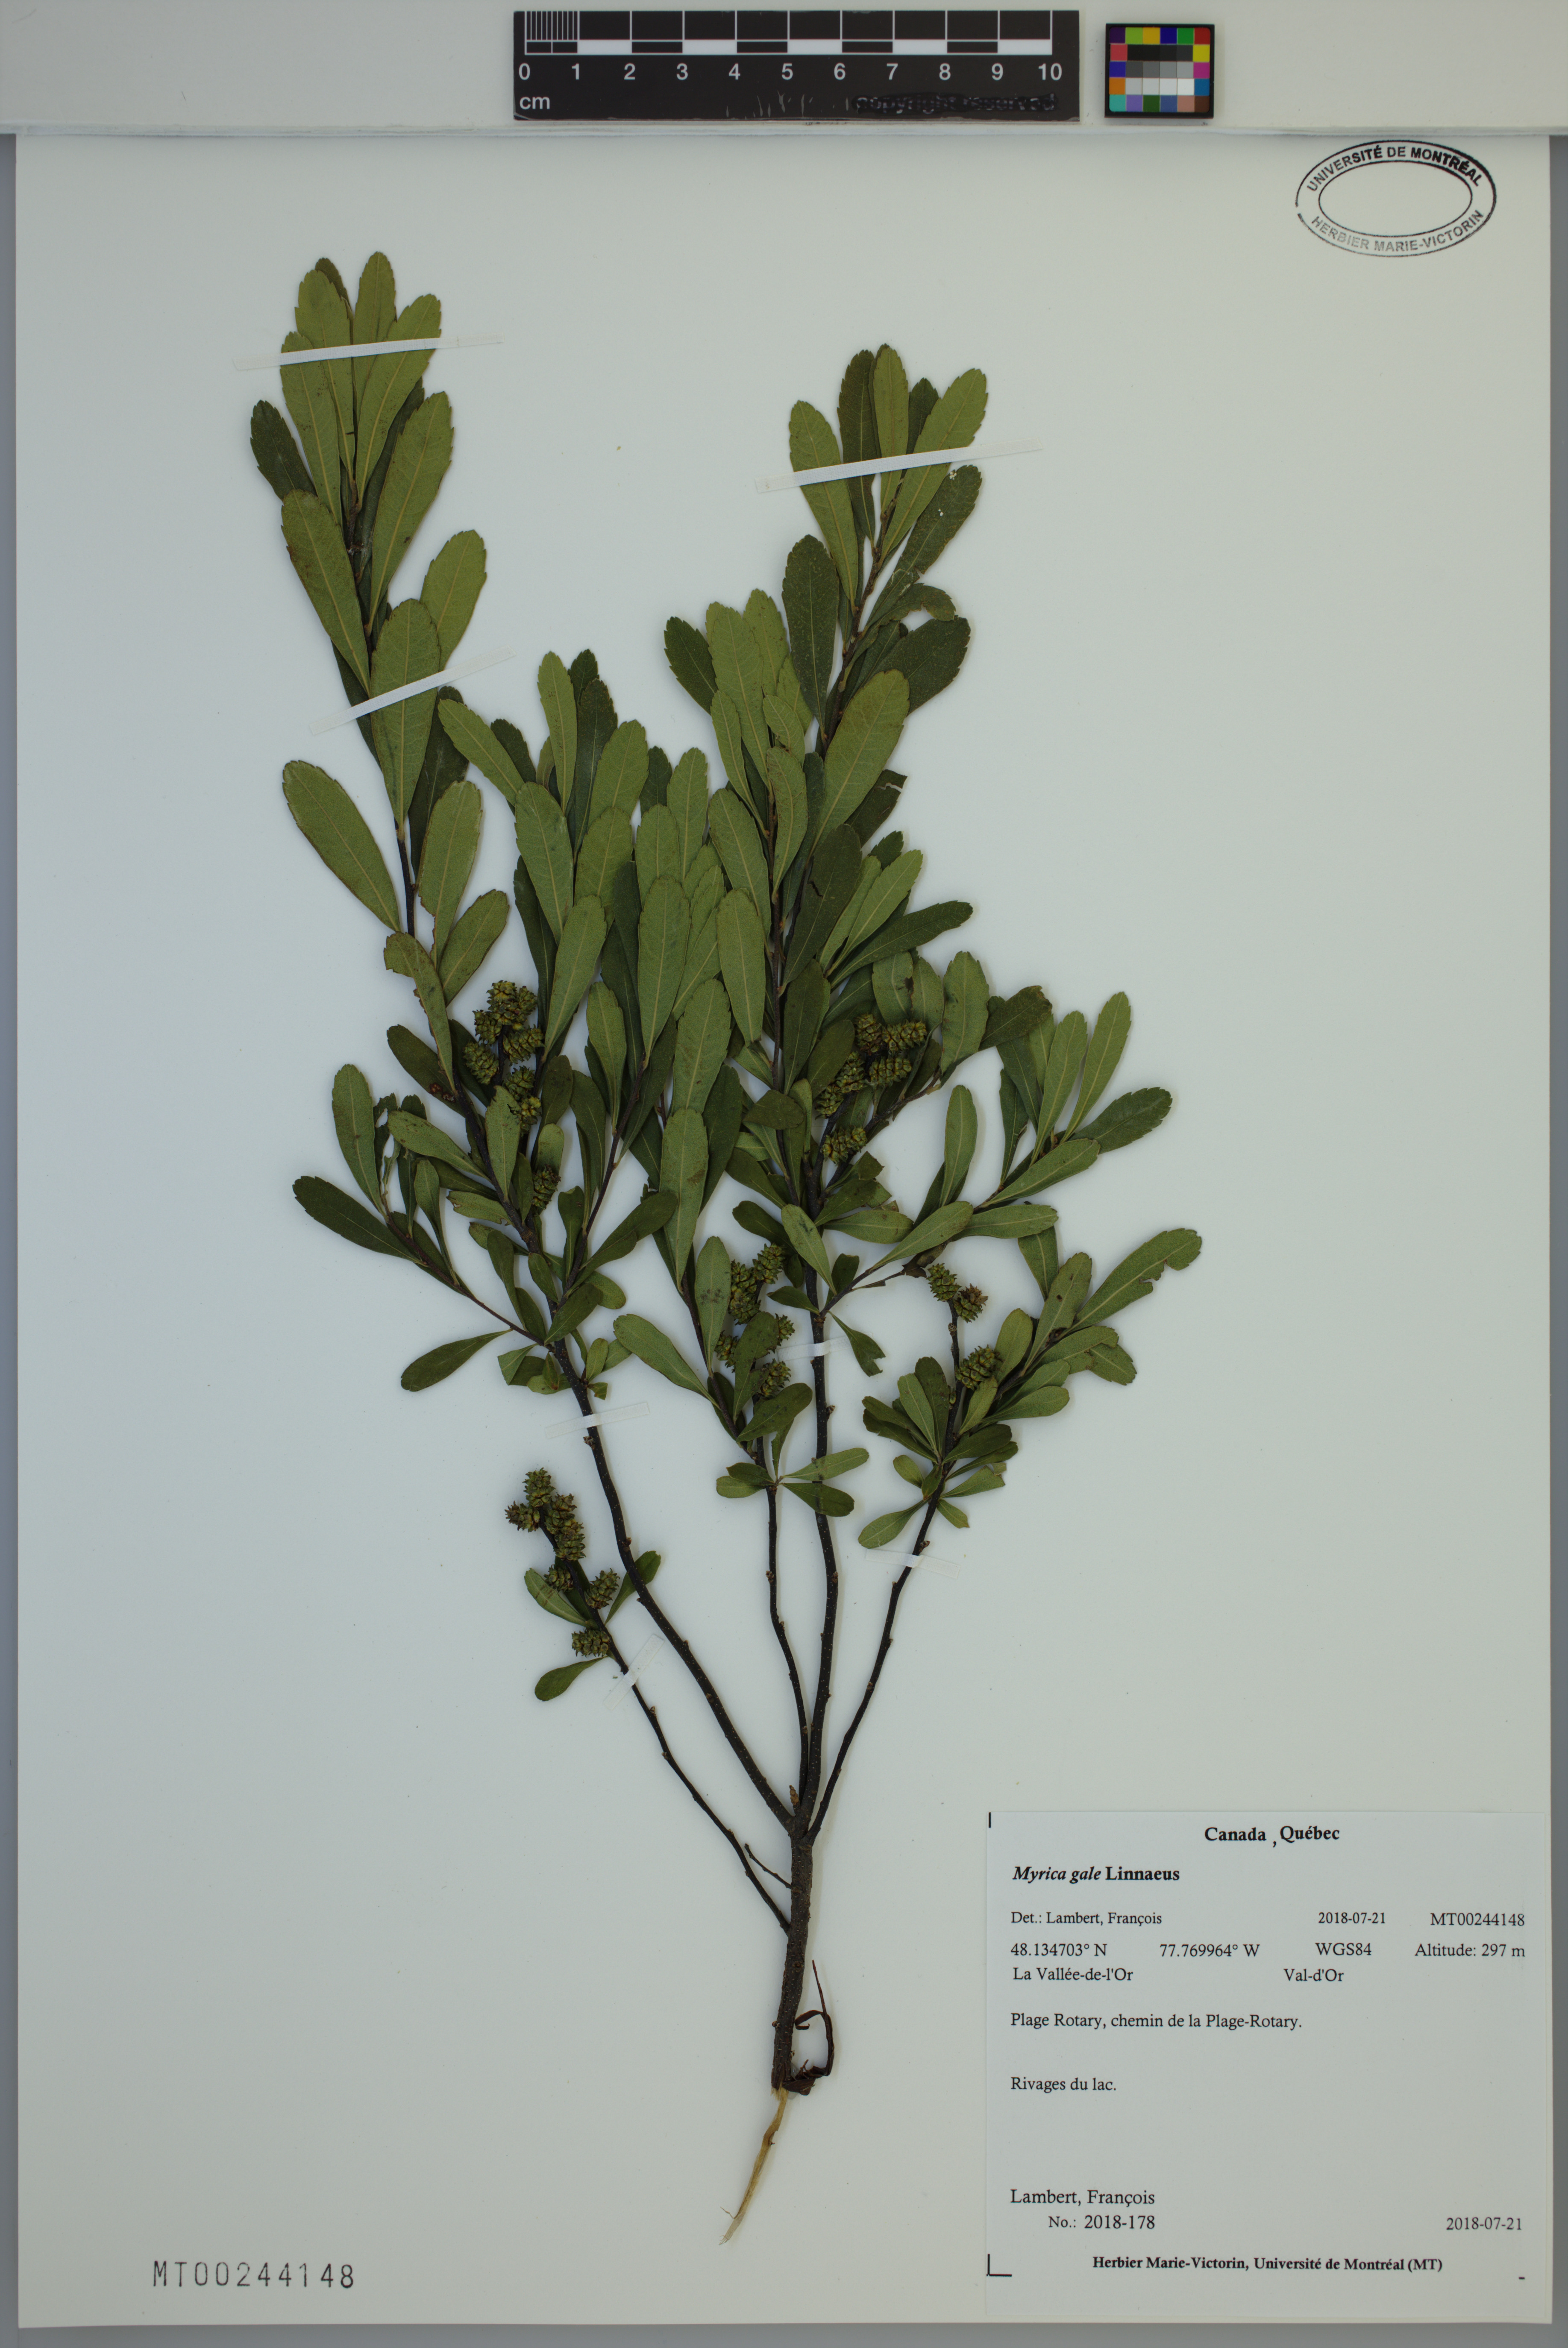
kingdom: Plantae
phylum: Tracheophyta
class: Magnoliopsida
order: Fagales
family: Myricaceae
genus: Myrica
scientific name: Myrica gale
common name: Sweet gale
